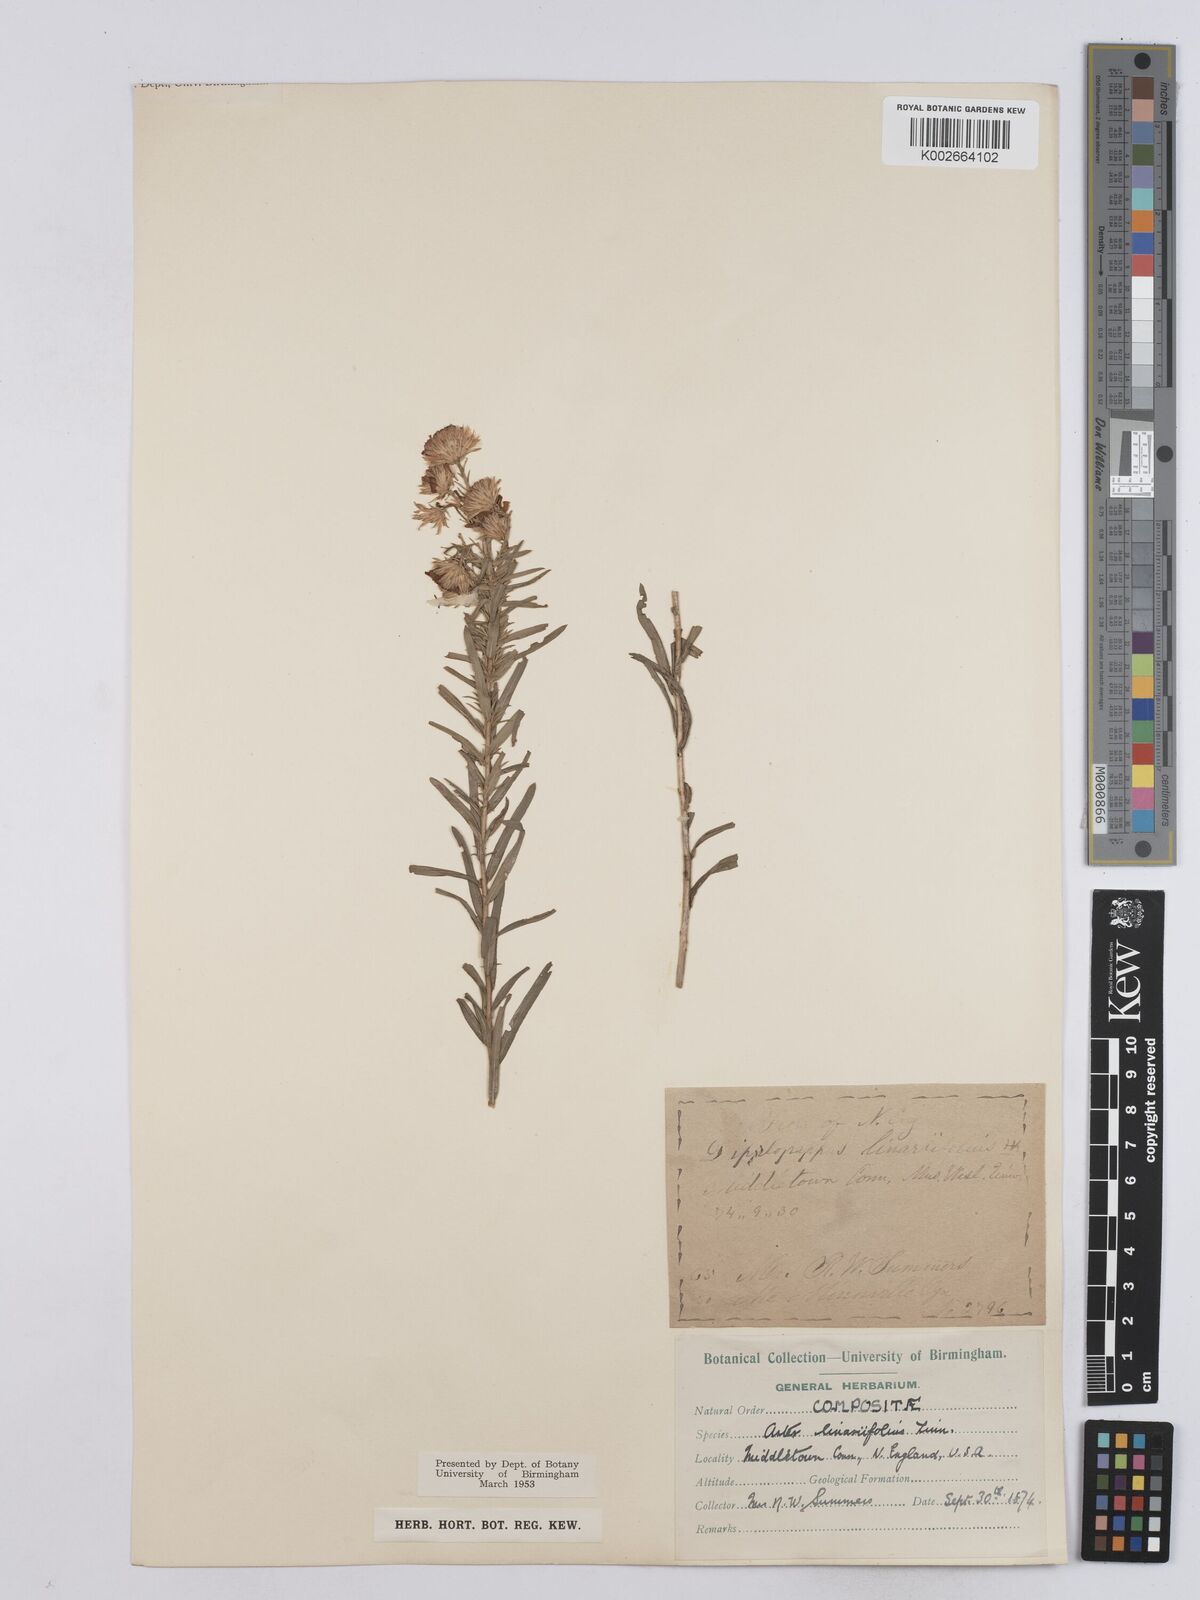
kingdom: Plantae
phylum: Tracheophyta
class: Magnoliopsida
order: Asterales
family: Asteraceae
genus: Ionactis
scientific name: Ionactis linariifolia
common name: Flax-leaf aster
